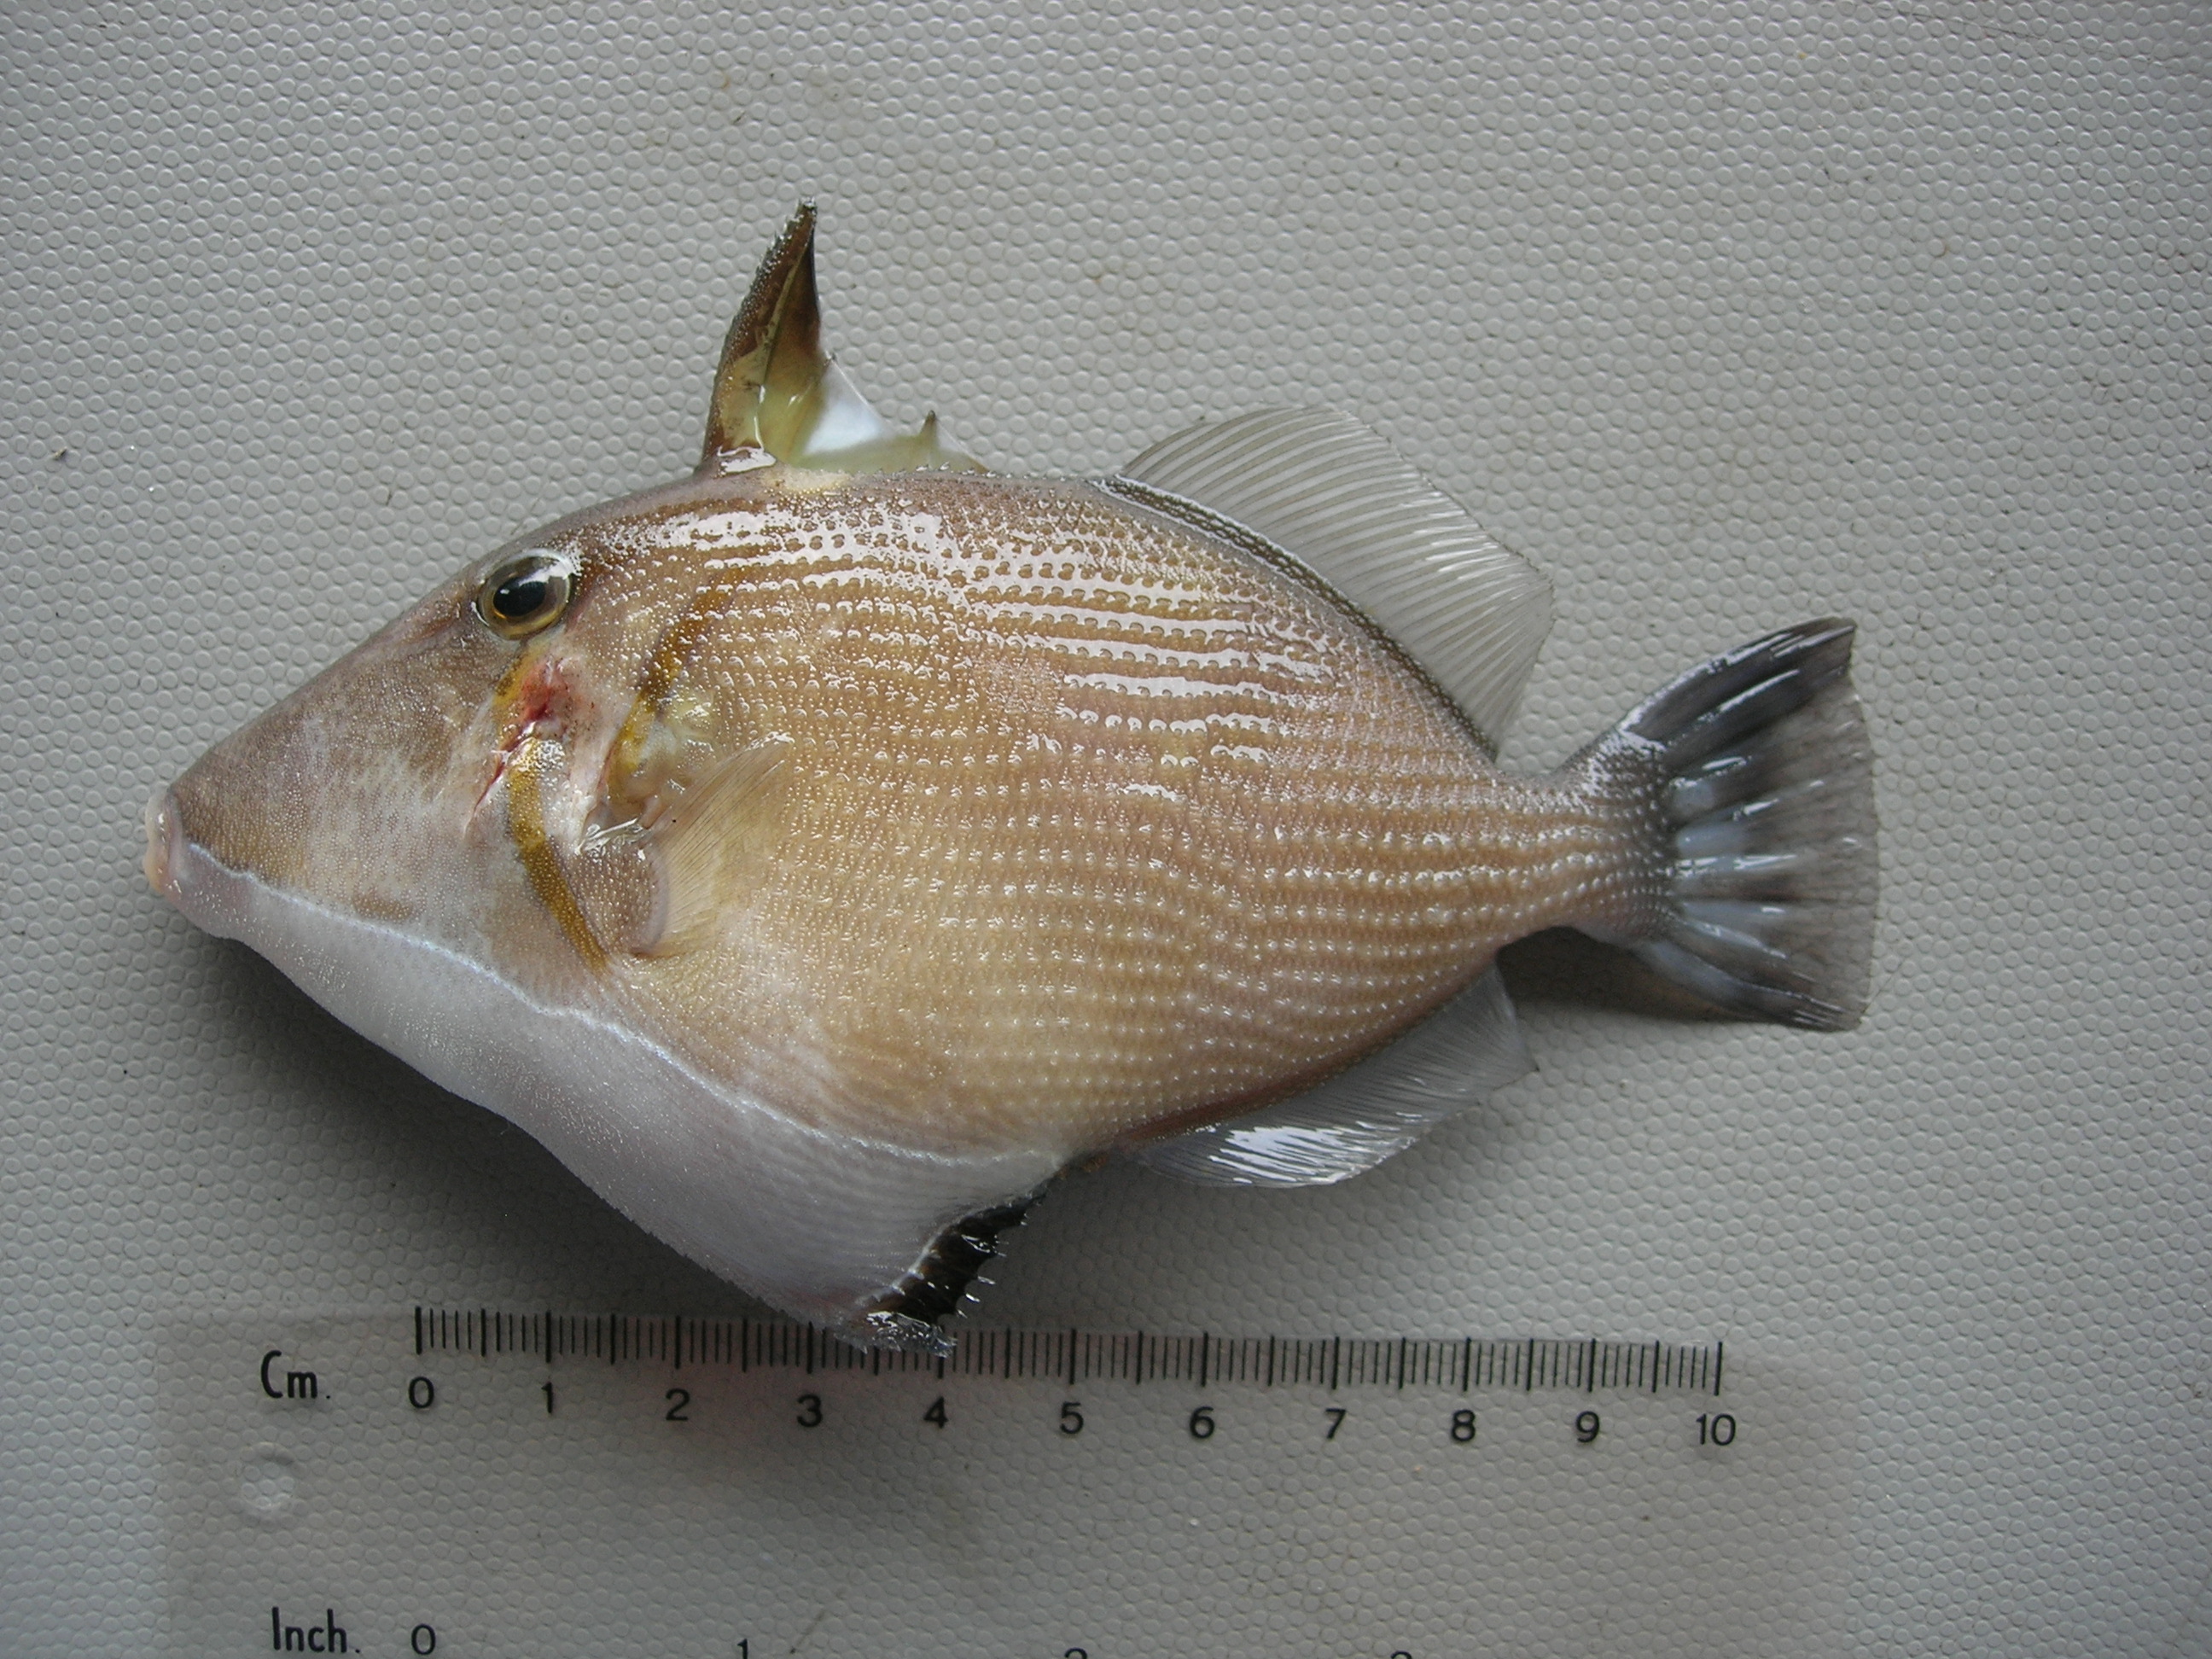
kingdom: Animalia
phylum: Chordata
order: Tetraodontiformes
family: Balistidae
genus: Sufflamen
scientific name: Sufflamen bursa
